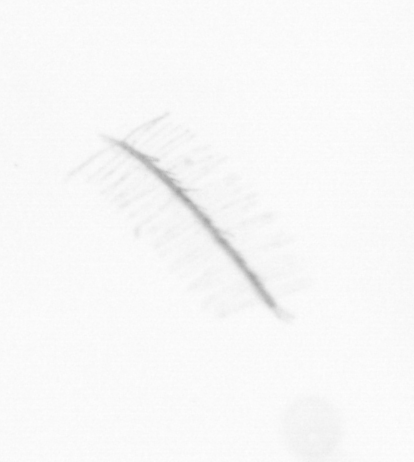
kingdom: Chromista
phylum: Ochrophyta
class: Bacillariophyceae
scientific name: Bacillariophyceae
